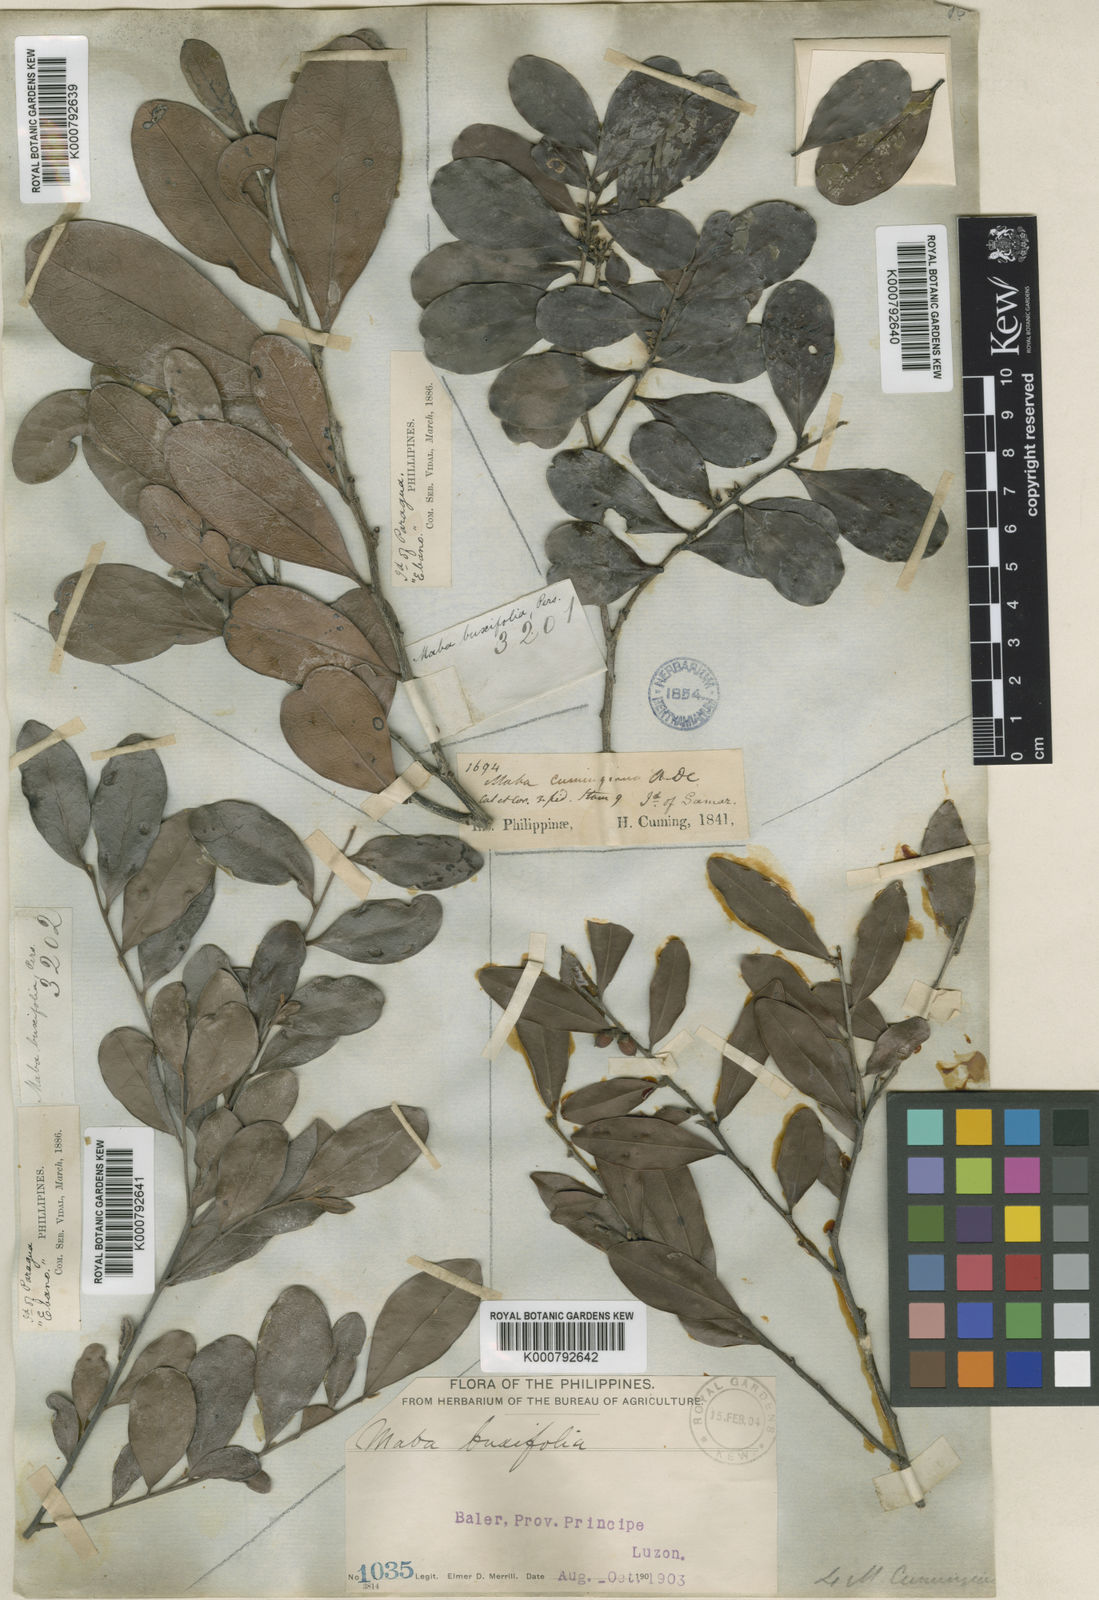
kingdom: Plantae
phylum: Tracheophyta
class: Magnoliopsida
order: Ericales
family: Ebenaceae
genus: Diospyros
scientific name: Diospyros multibracteata
